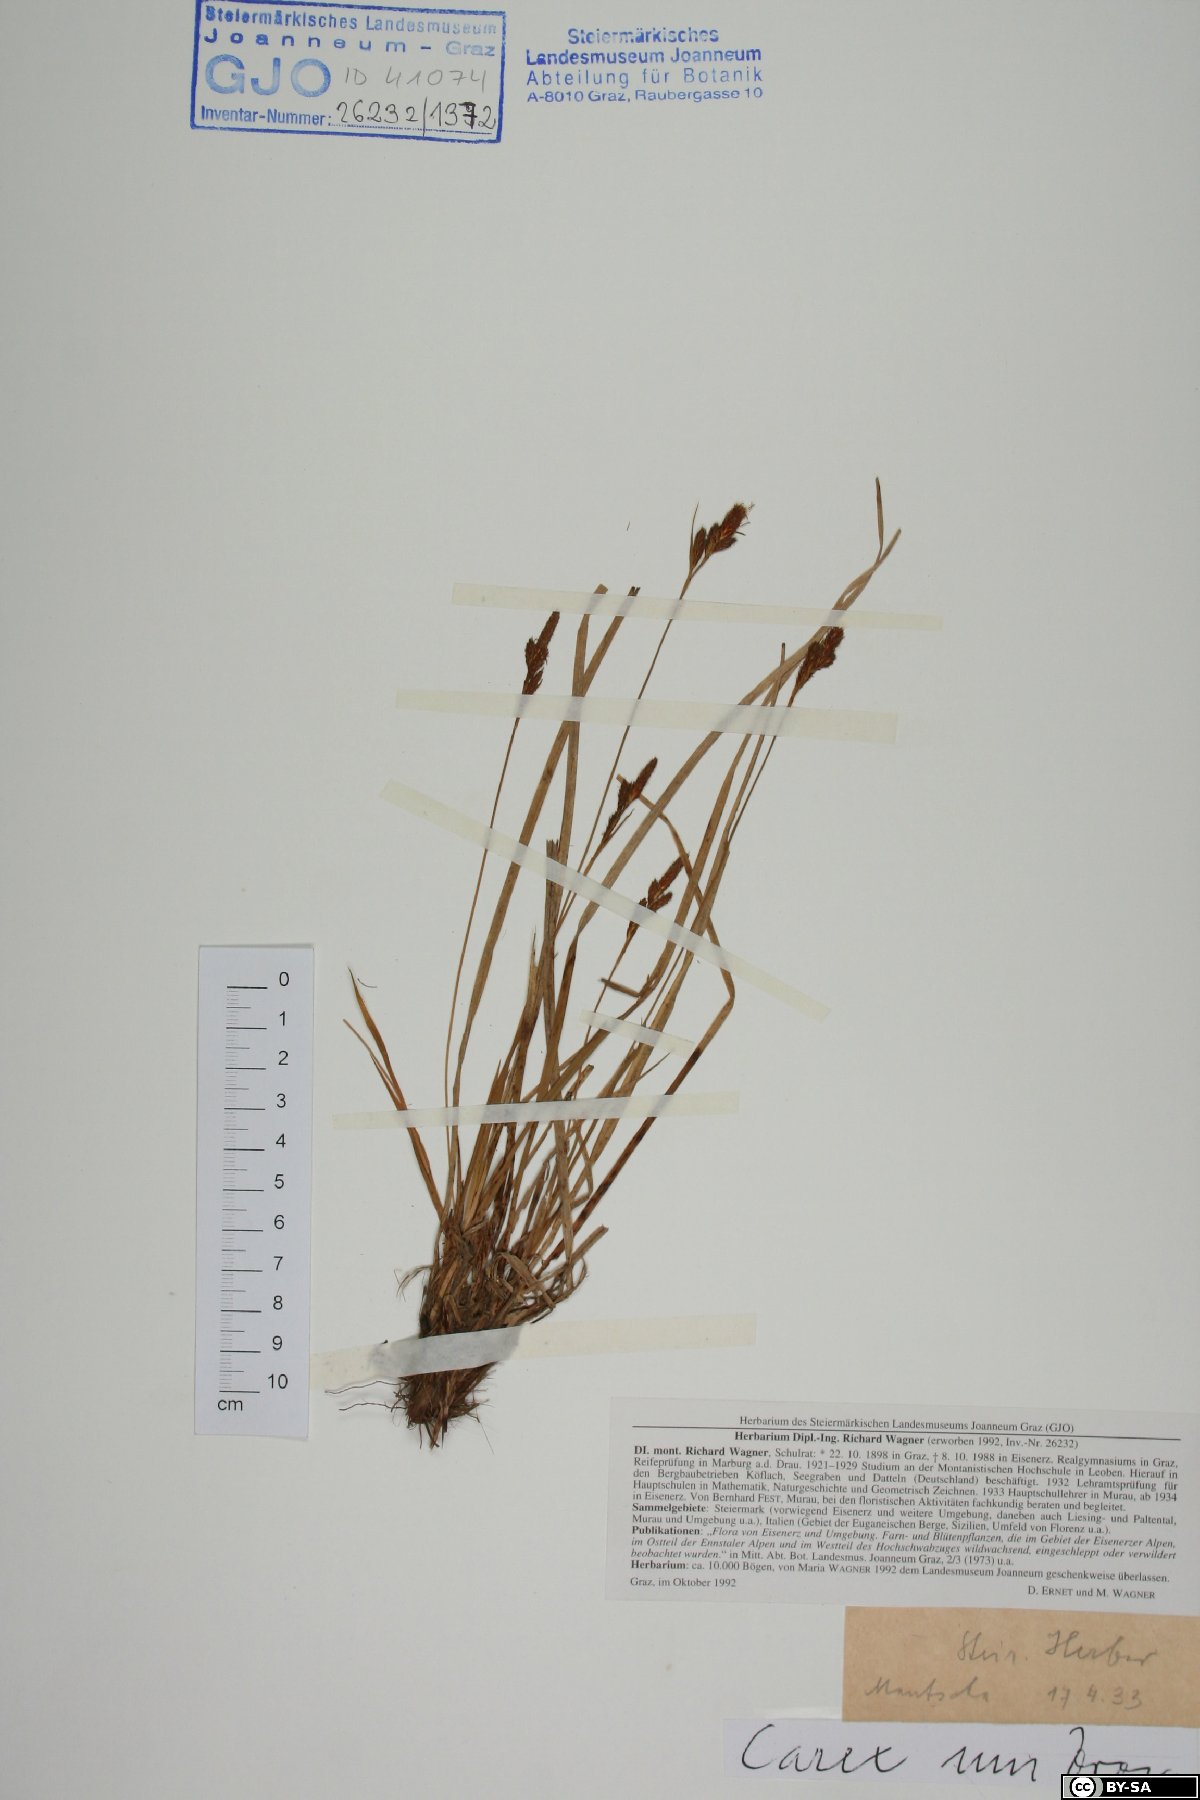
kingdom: Plantae
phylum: Tracheophyta
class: Liliopsida
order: Poales
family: Cyperaceae
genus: Carex
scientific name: Carex umbrosa
